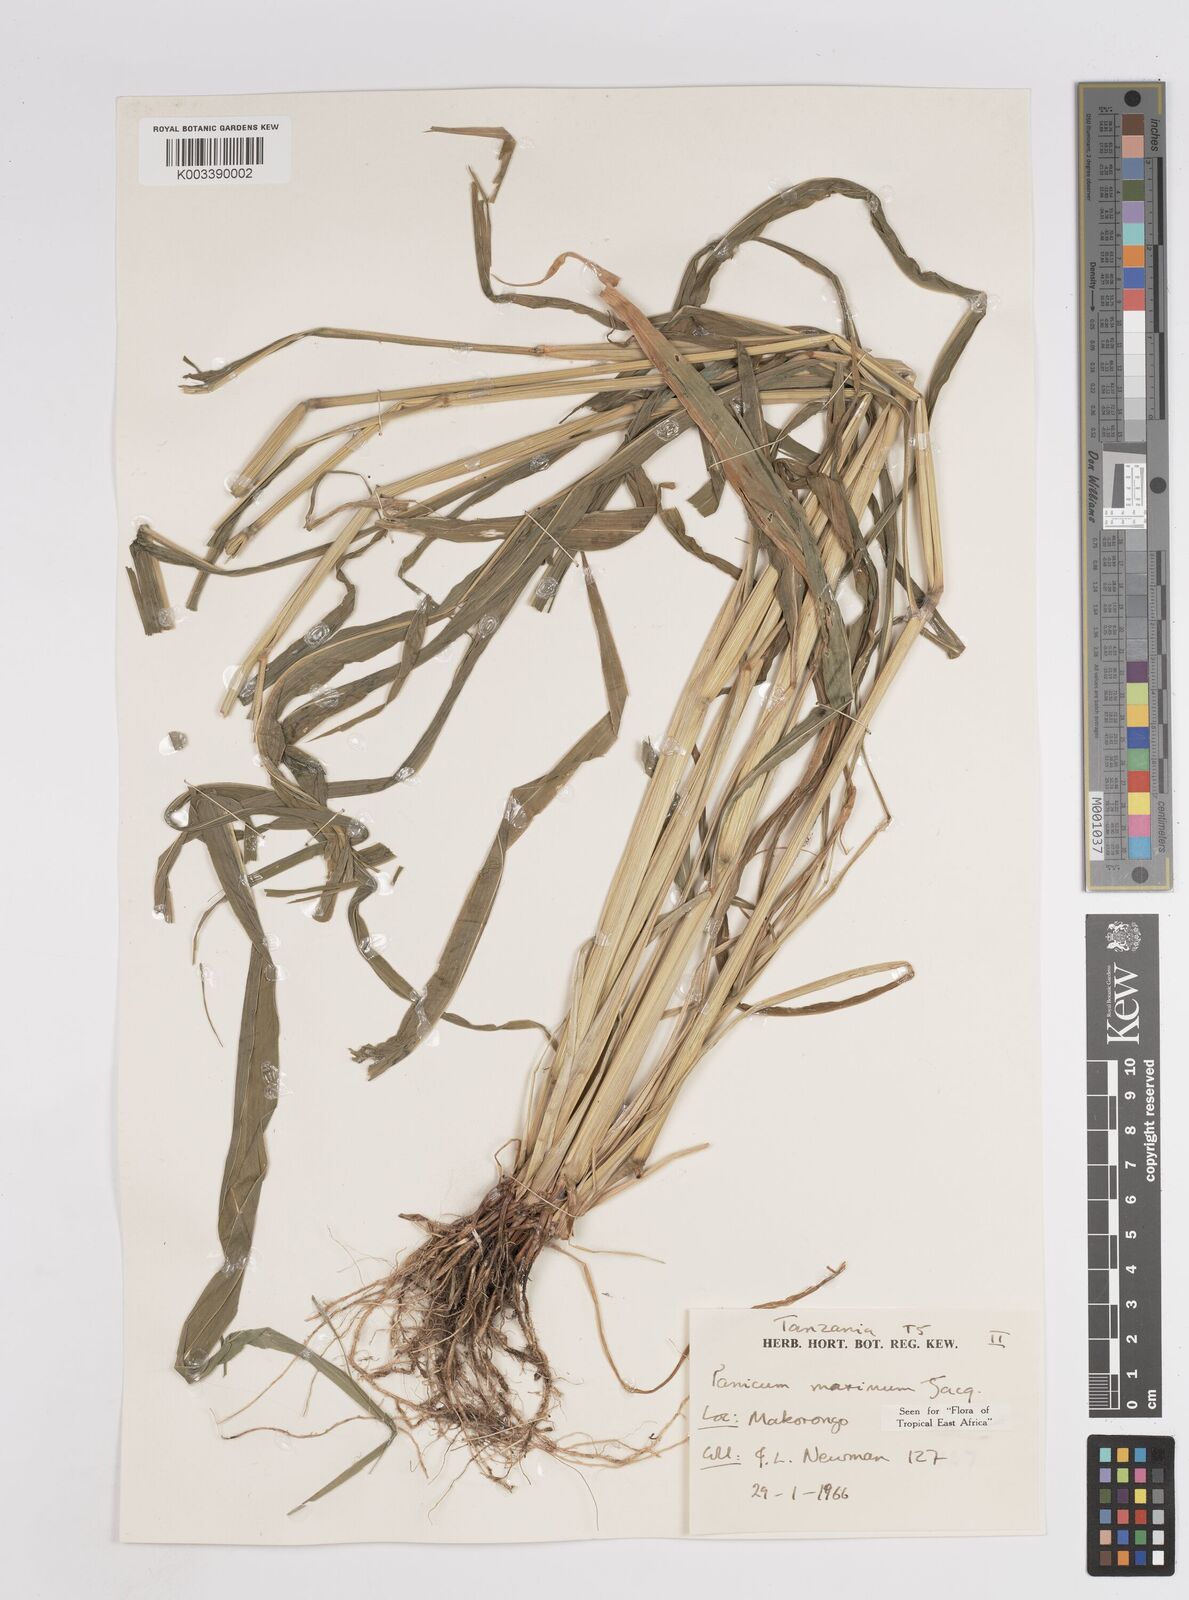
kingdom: Plantae
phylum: Tracheophyta
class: Liliopsida
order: Poales
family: Poaceae
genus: Megathyrsus
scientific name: Megathyrsus maximus
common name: Guineagrass
